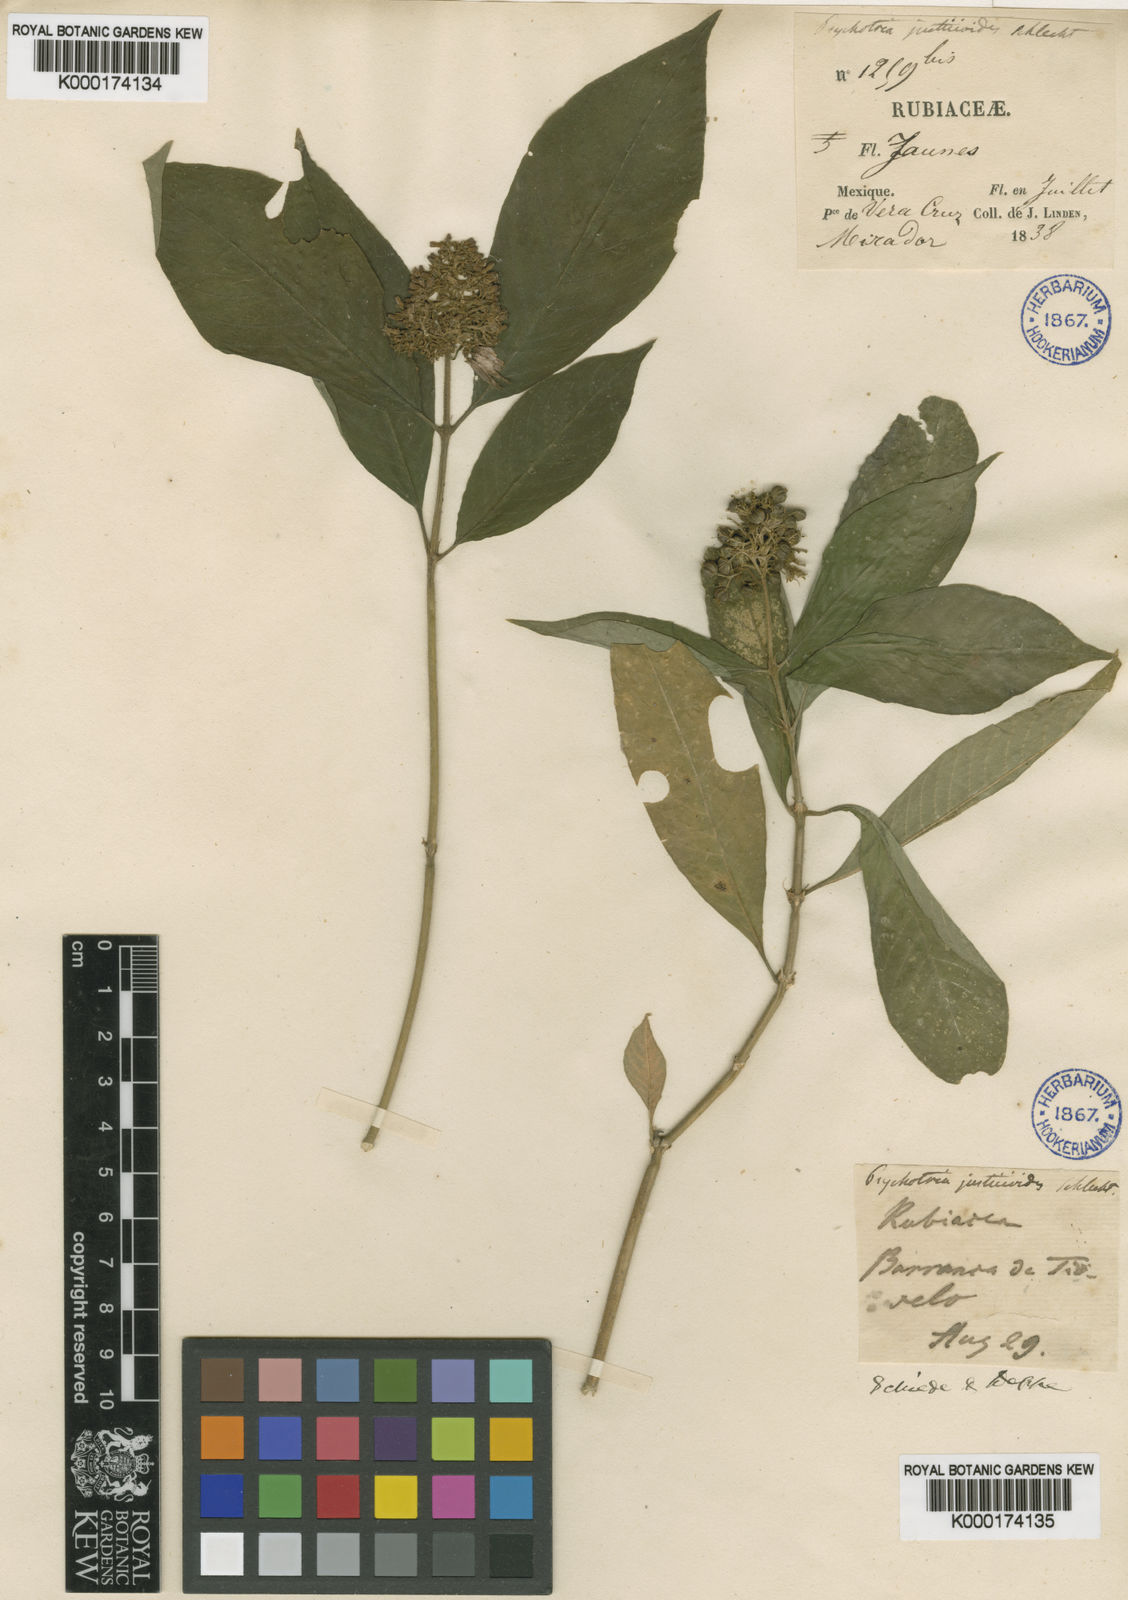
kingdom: Plantae
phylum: Tracheophyta
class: Magnoliopsida
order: Gentianales
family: Rubiaceae
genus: Palicourea
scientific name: Palicourea pubescens
